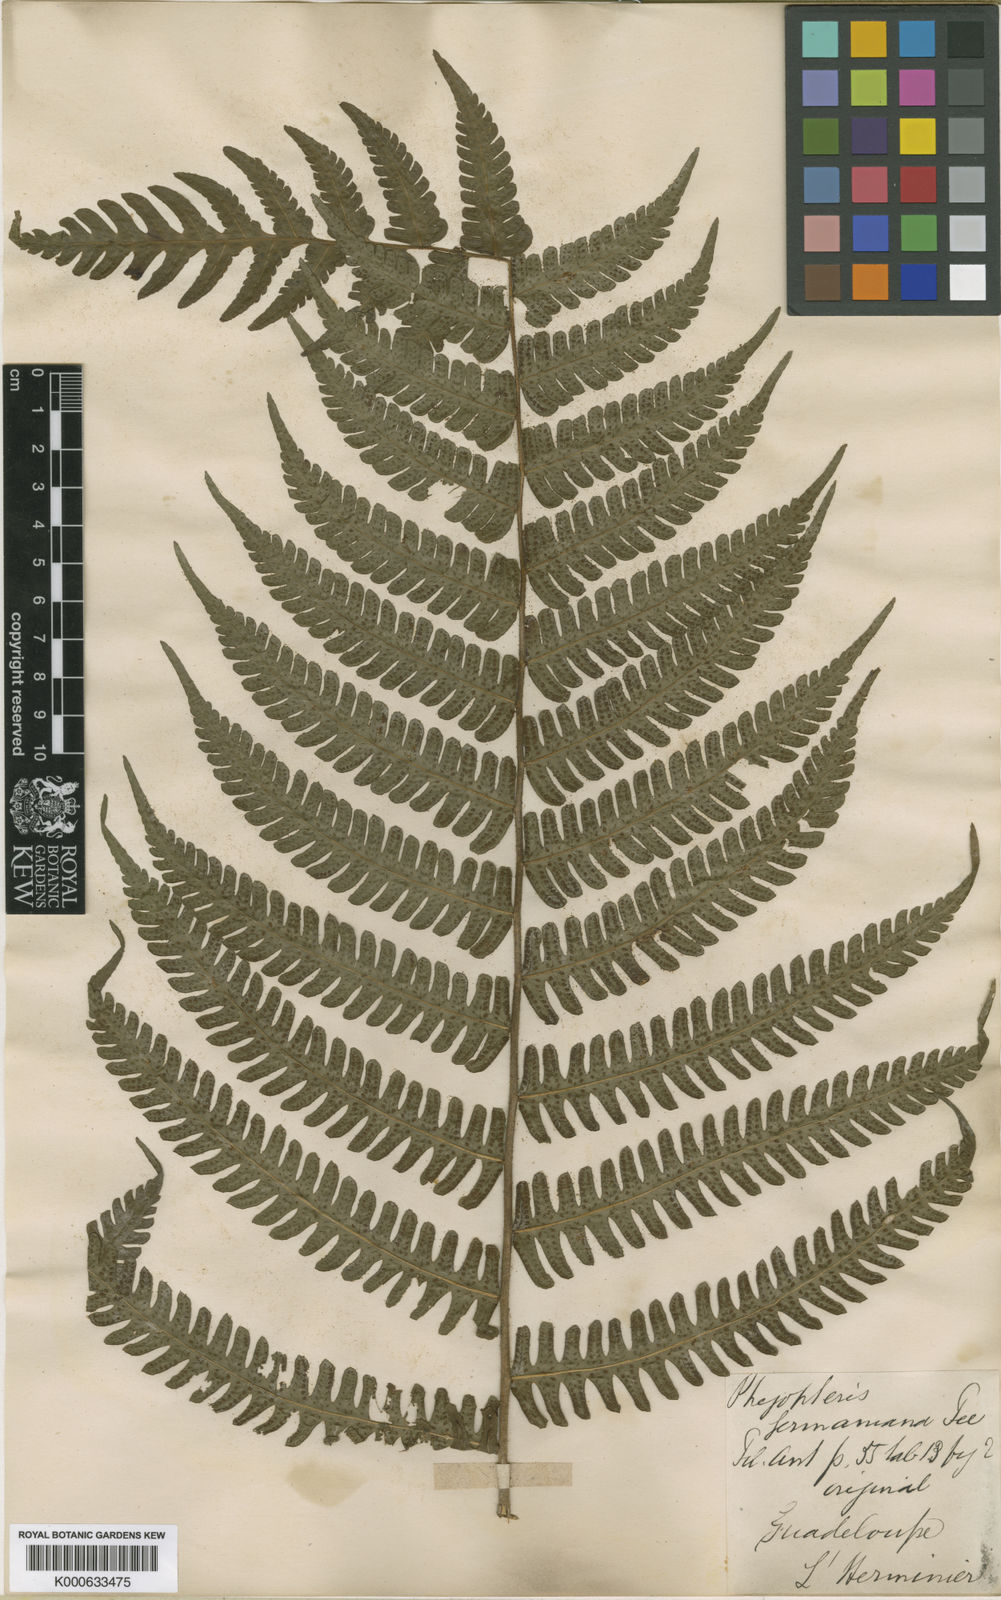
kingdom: Plantae
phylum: Tracheophyta
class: Polypodiopsida
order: Polypodiales
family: Thelypteridaceae
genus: Amauropelta
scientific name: Amauropelta
